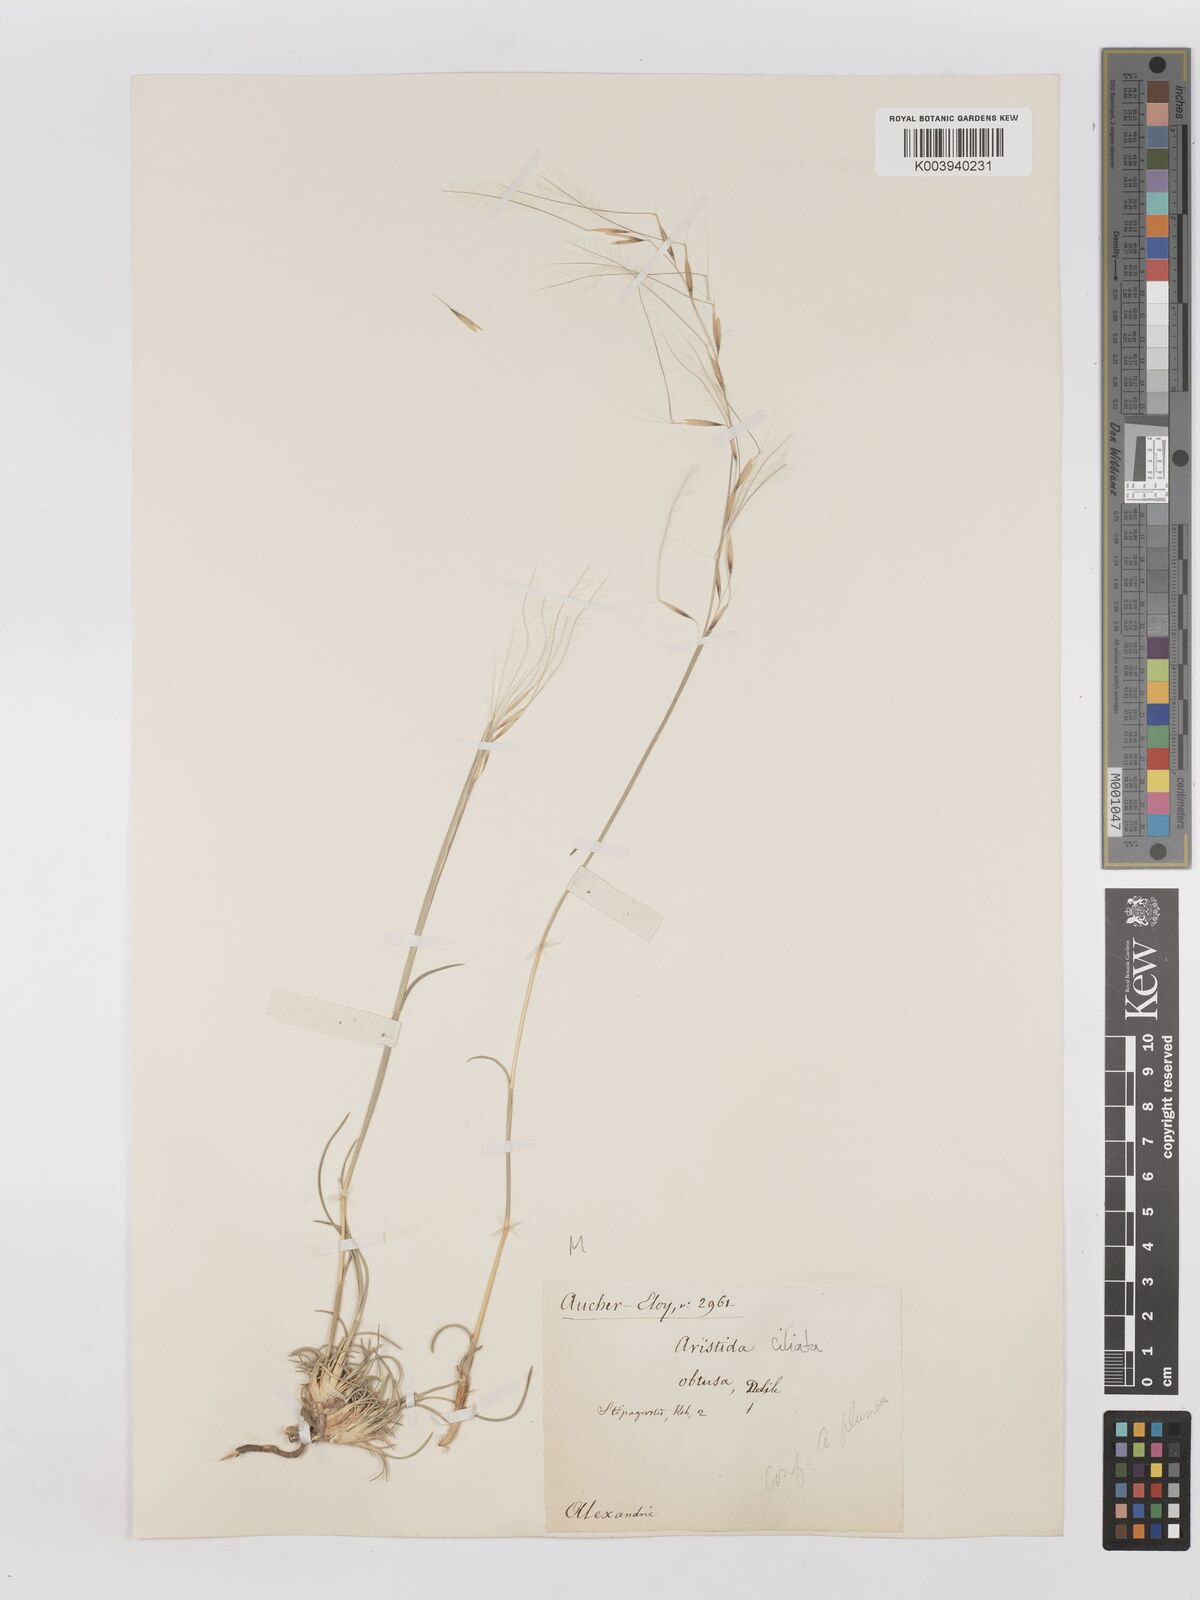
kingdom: Plantae
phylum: Tracheophyta
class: Liliopsida
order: Poales
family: Poaceae
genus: Stipagrostis
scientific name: Stipagrostis ciliata
